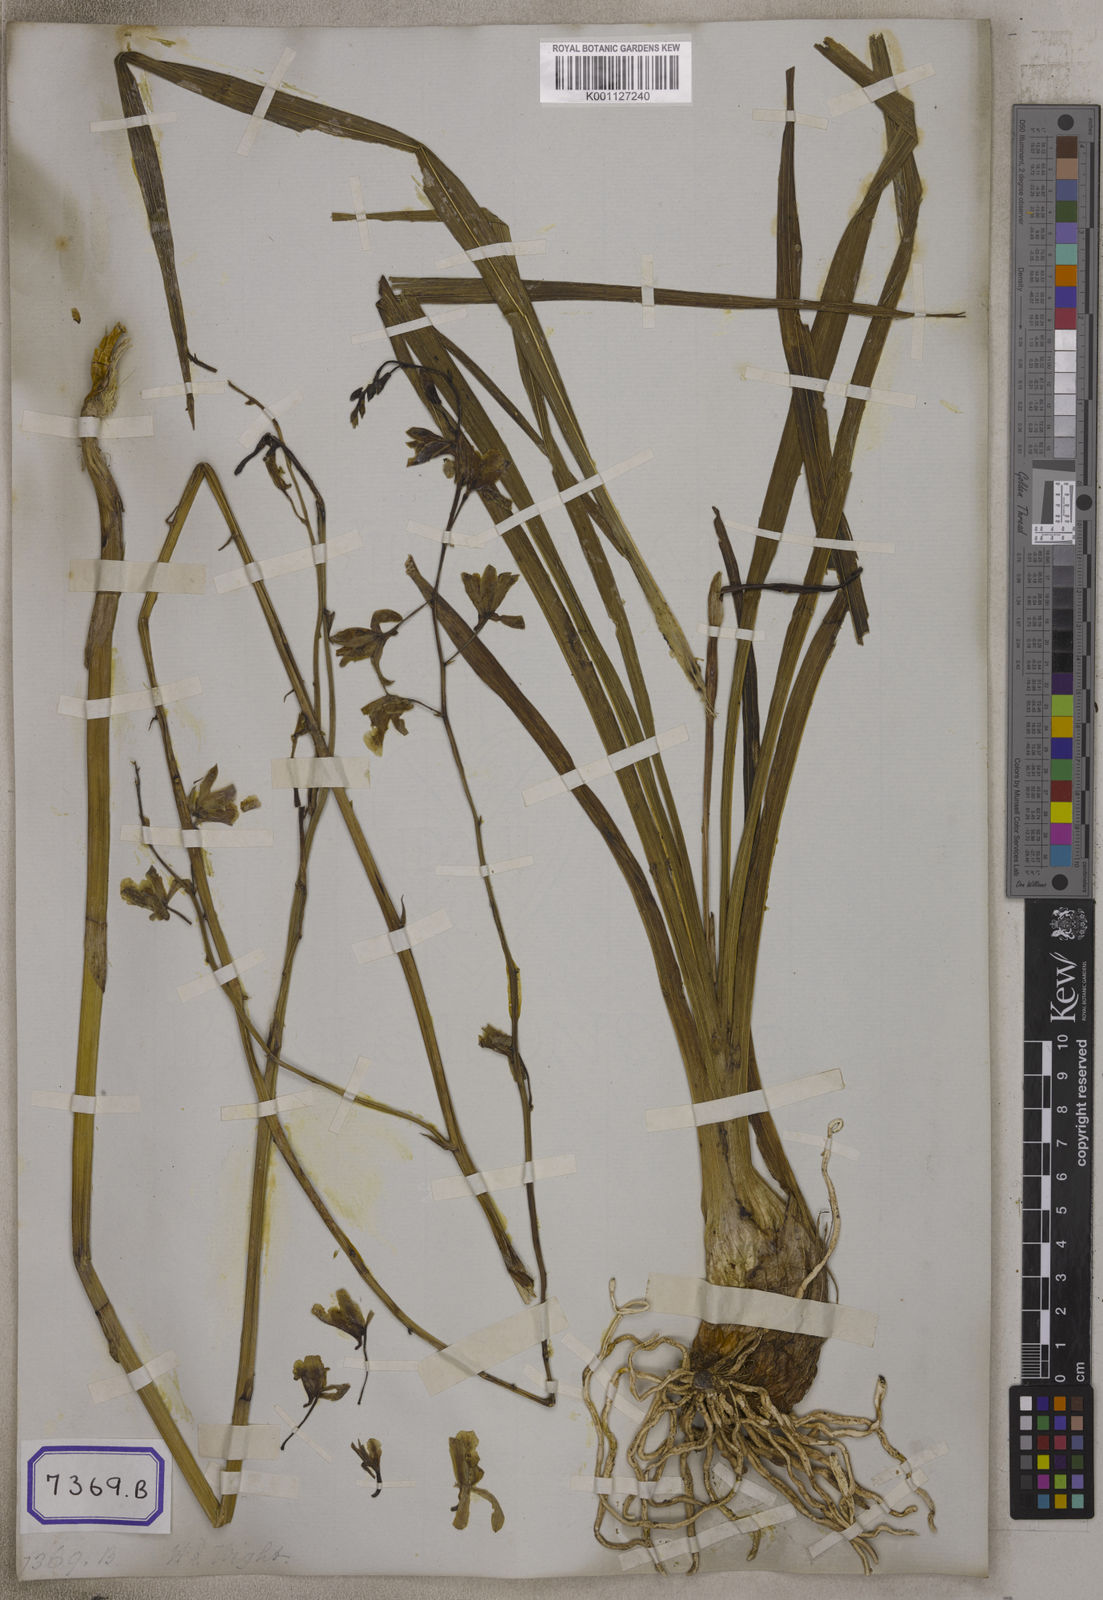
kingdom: Plantae
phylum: Tracheophyta
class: Liliopsida
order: Asparagales
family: Orchidaceae
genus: Eulophia
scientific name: Eulophia
